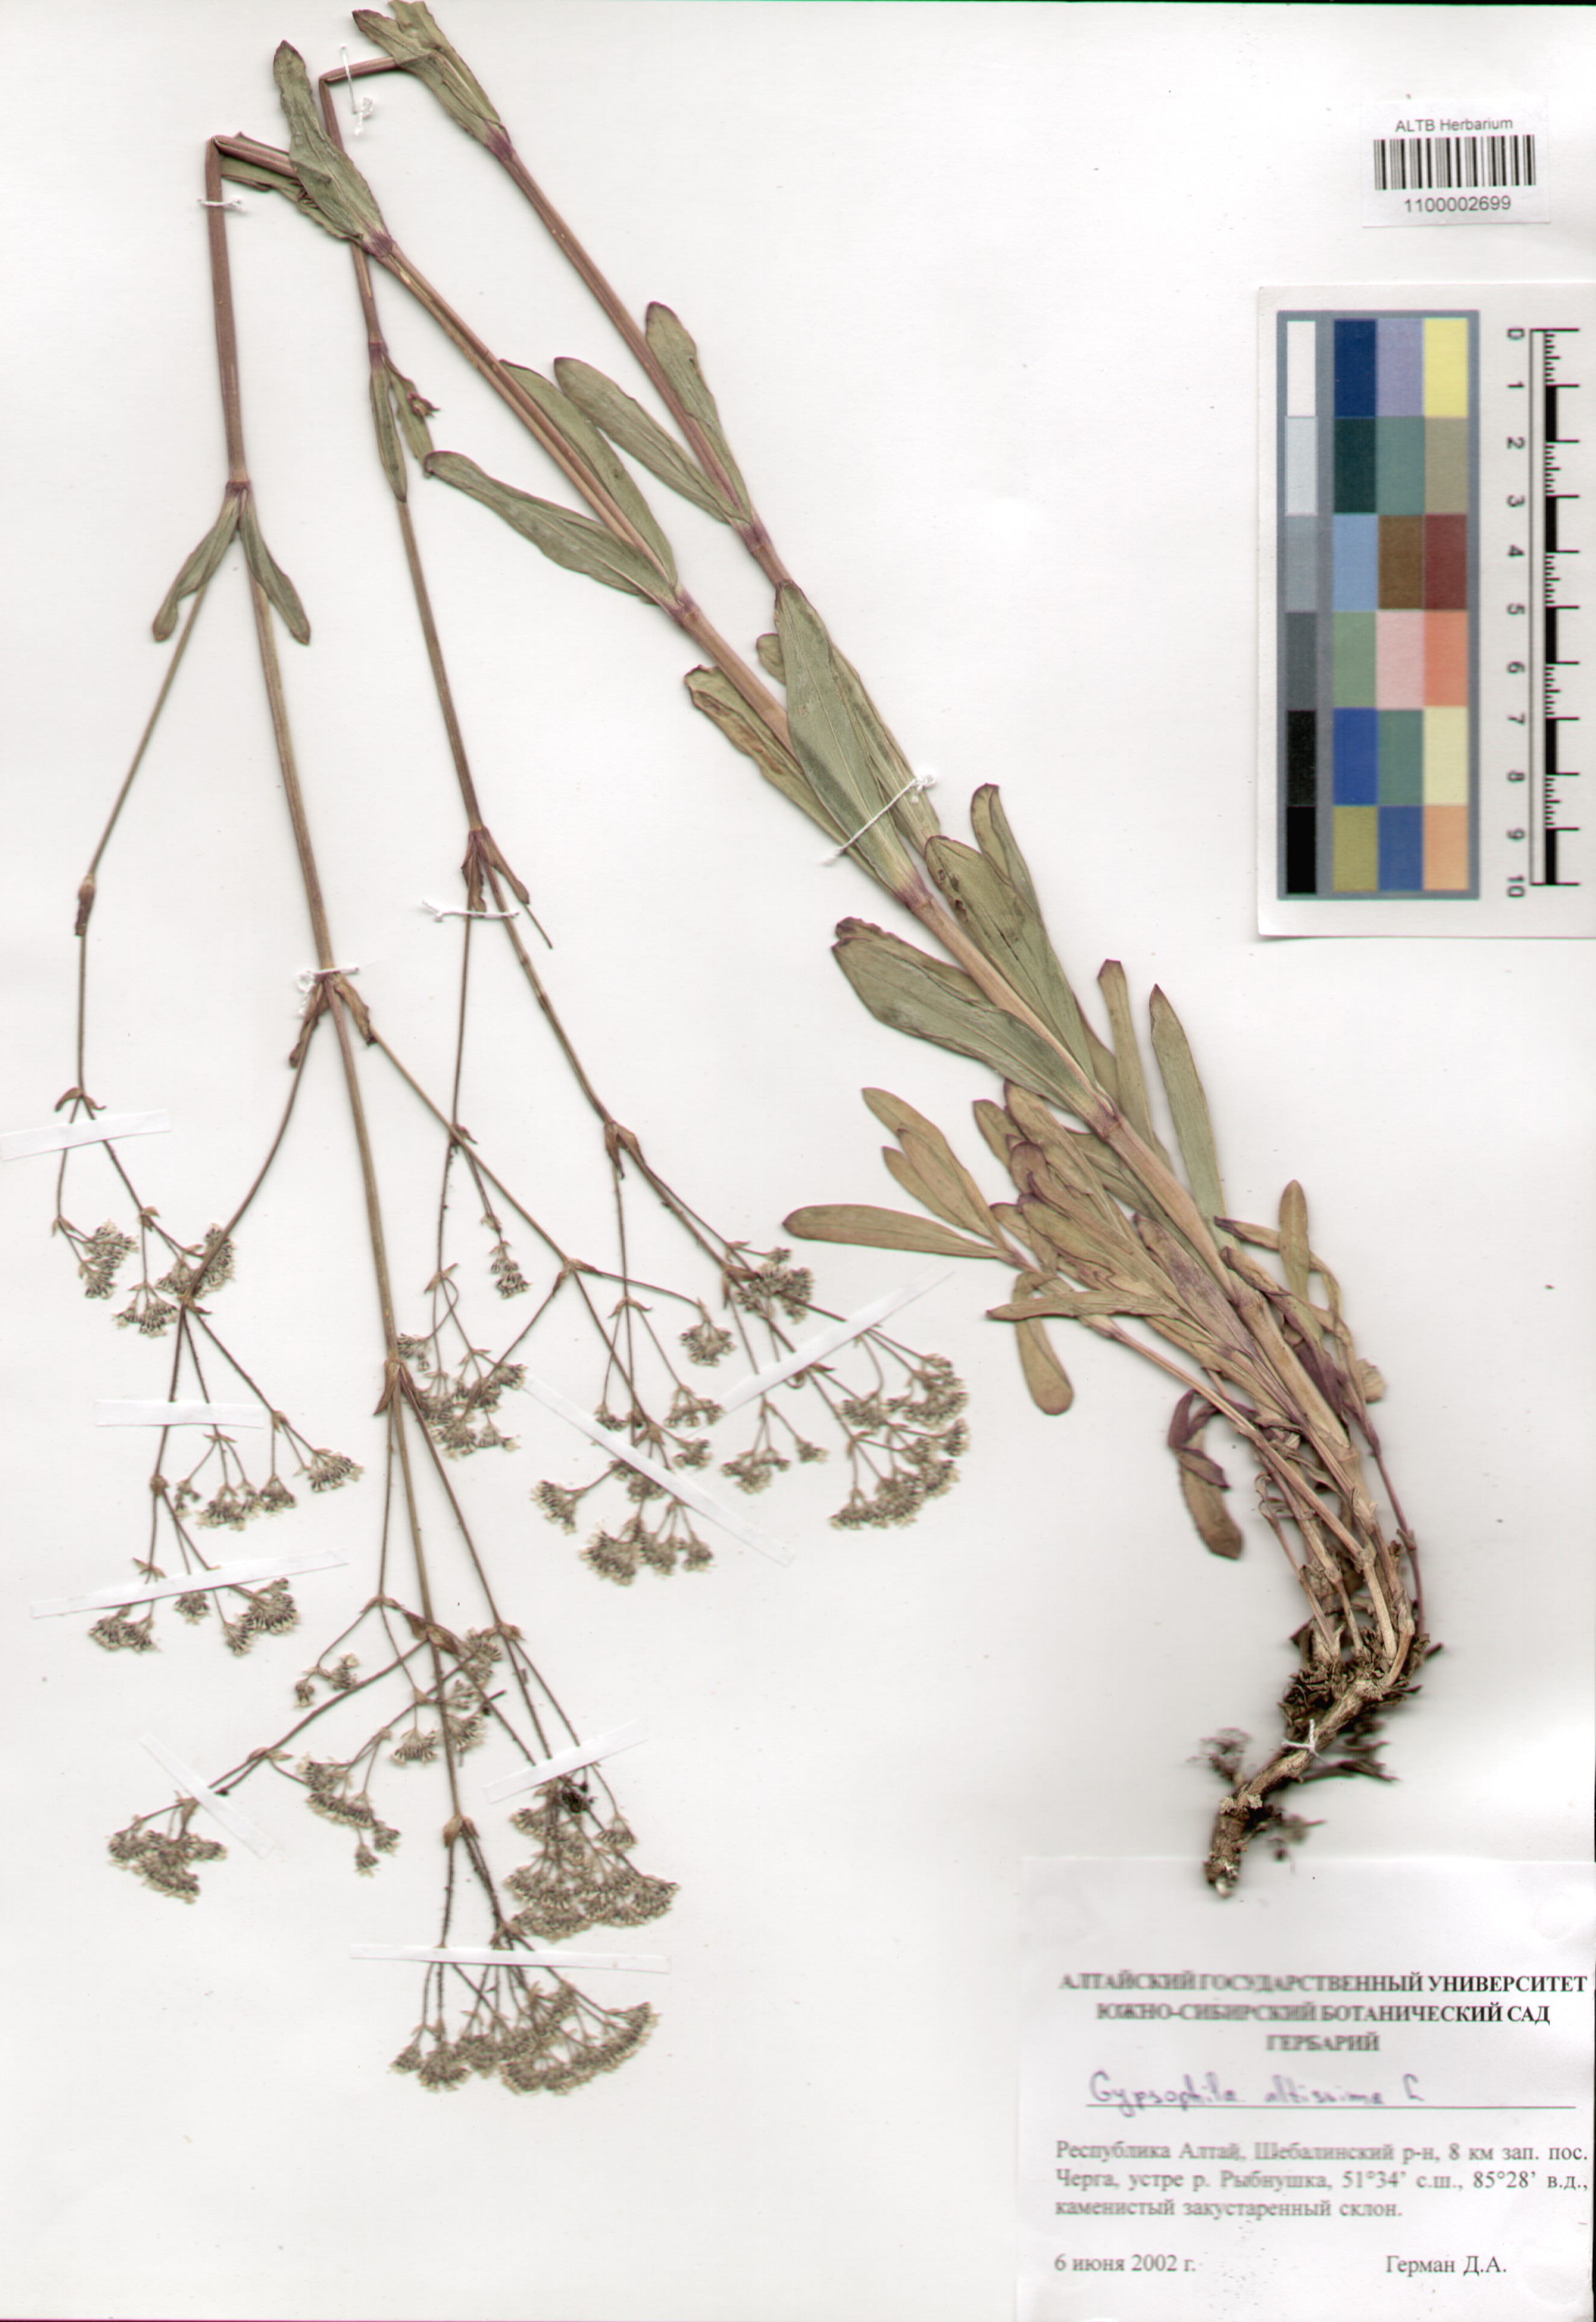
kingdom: Plantae
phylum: Tracheophyta
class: Magnoliopsida
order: Caryophyllales
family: Caryophyllaceae
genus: Gypsophila
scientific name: Gypsophila altissima
